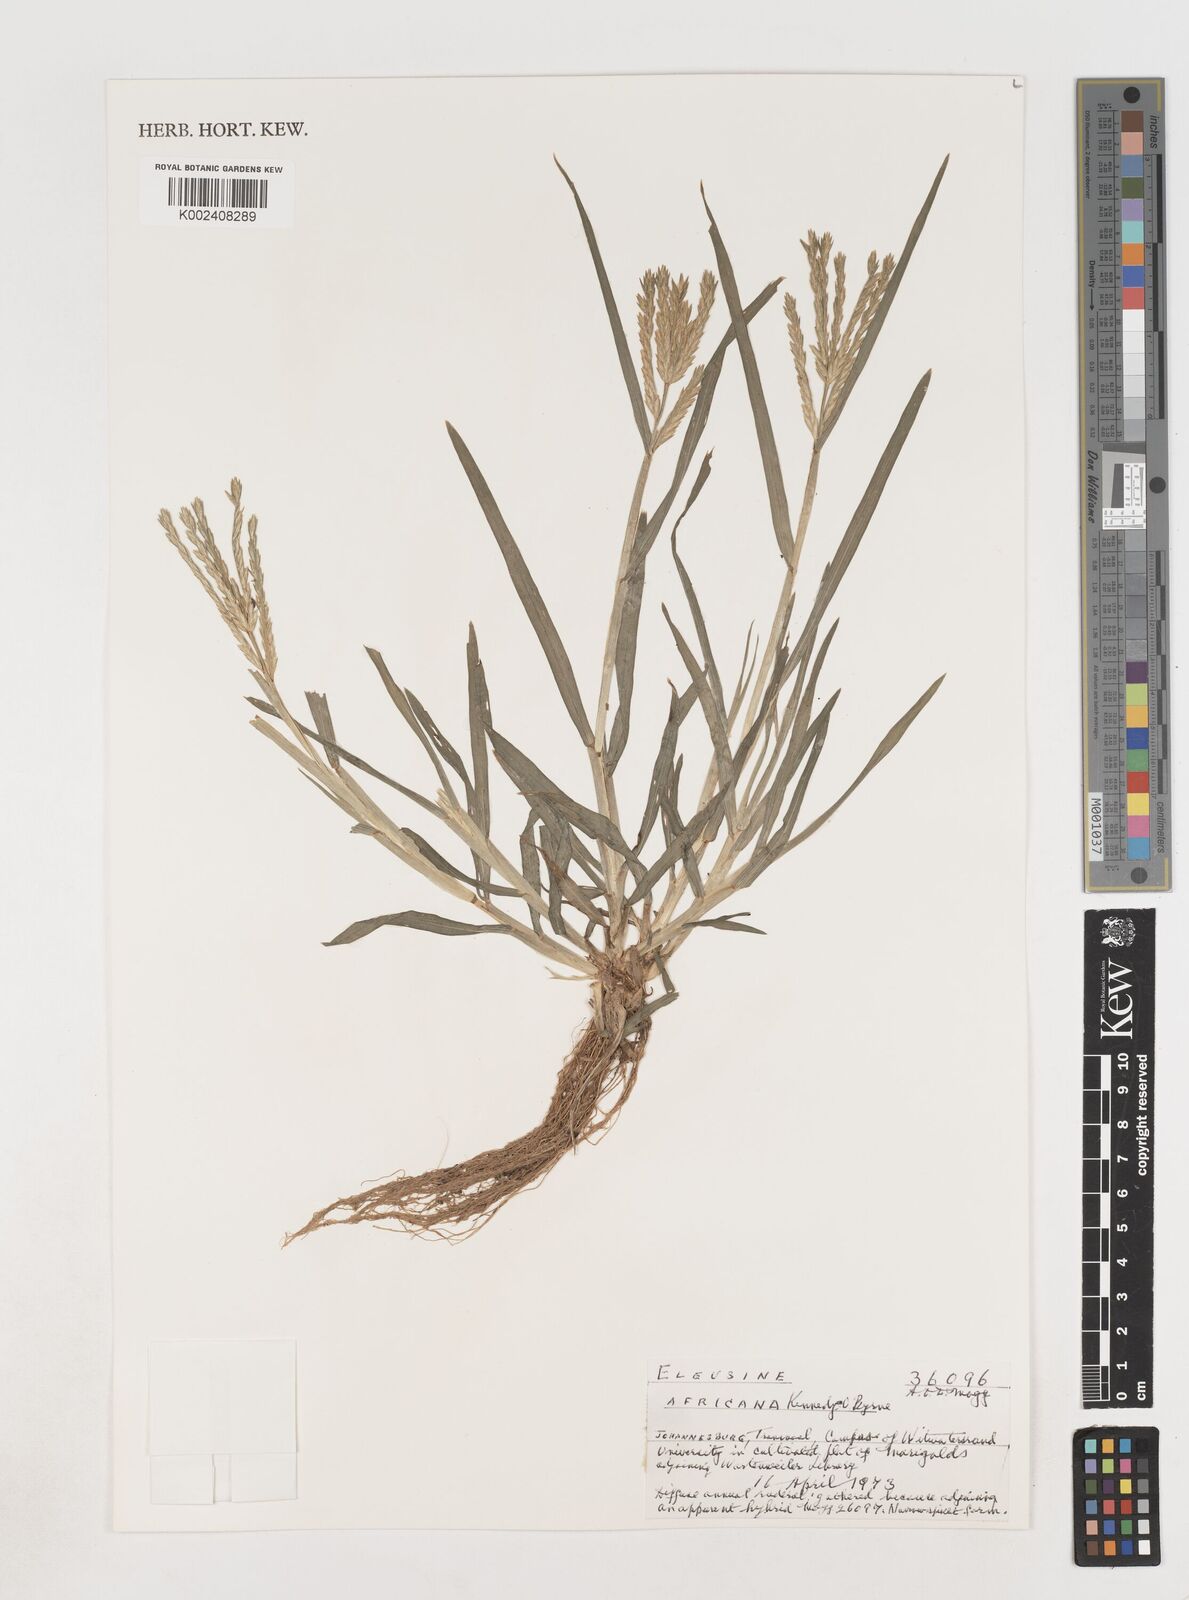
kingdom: Plantae
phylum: Tracheophyta
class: Liliopsida
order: Poales
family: Poaceae
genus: Eleusine
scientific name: Eleusine africana
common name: Wild african finger millet
